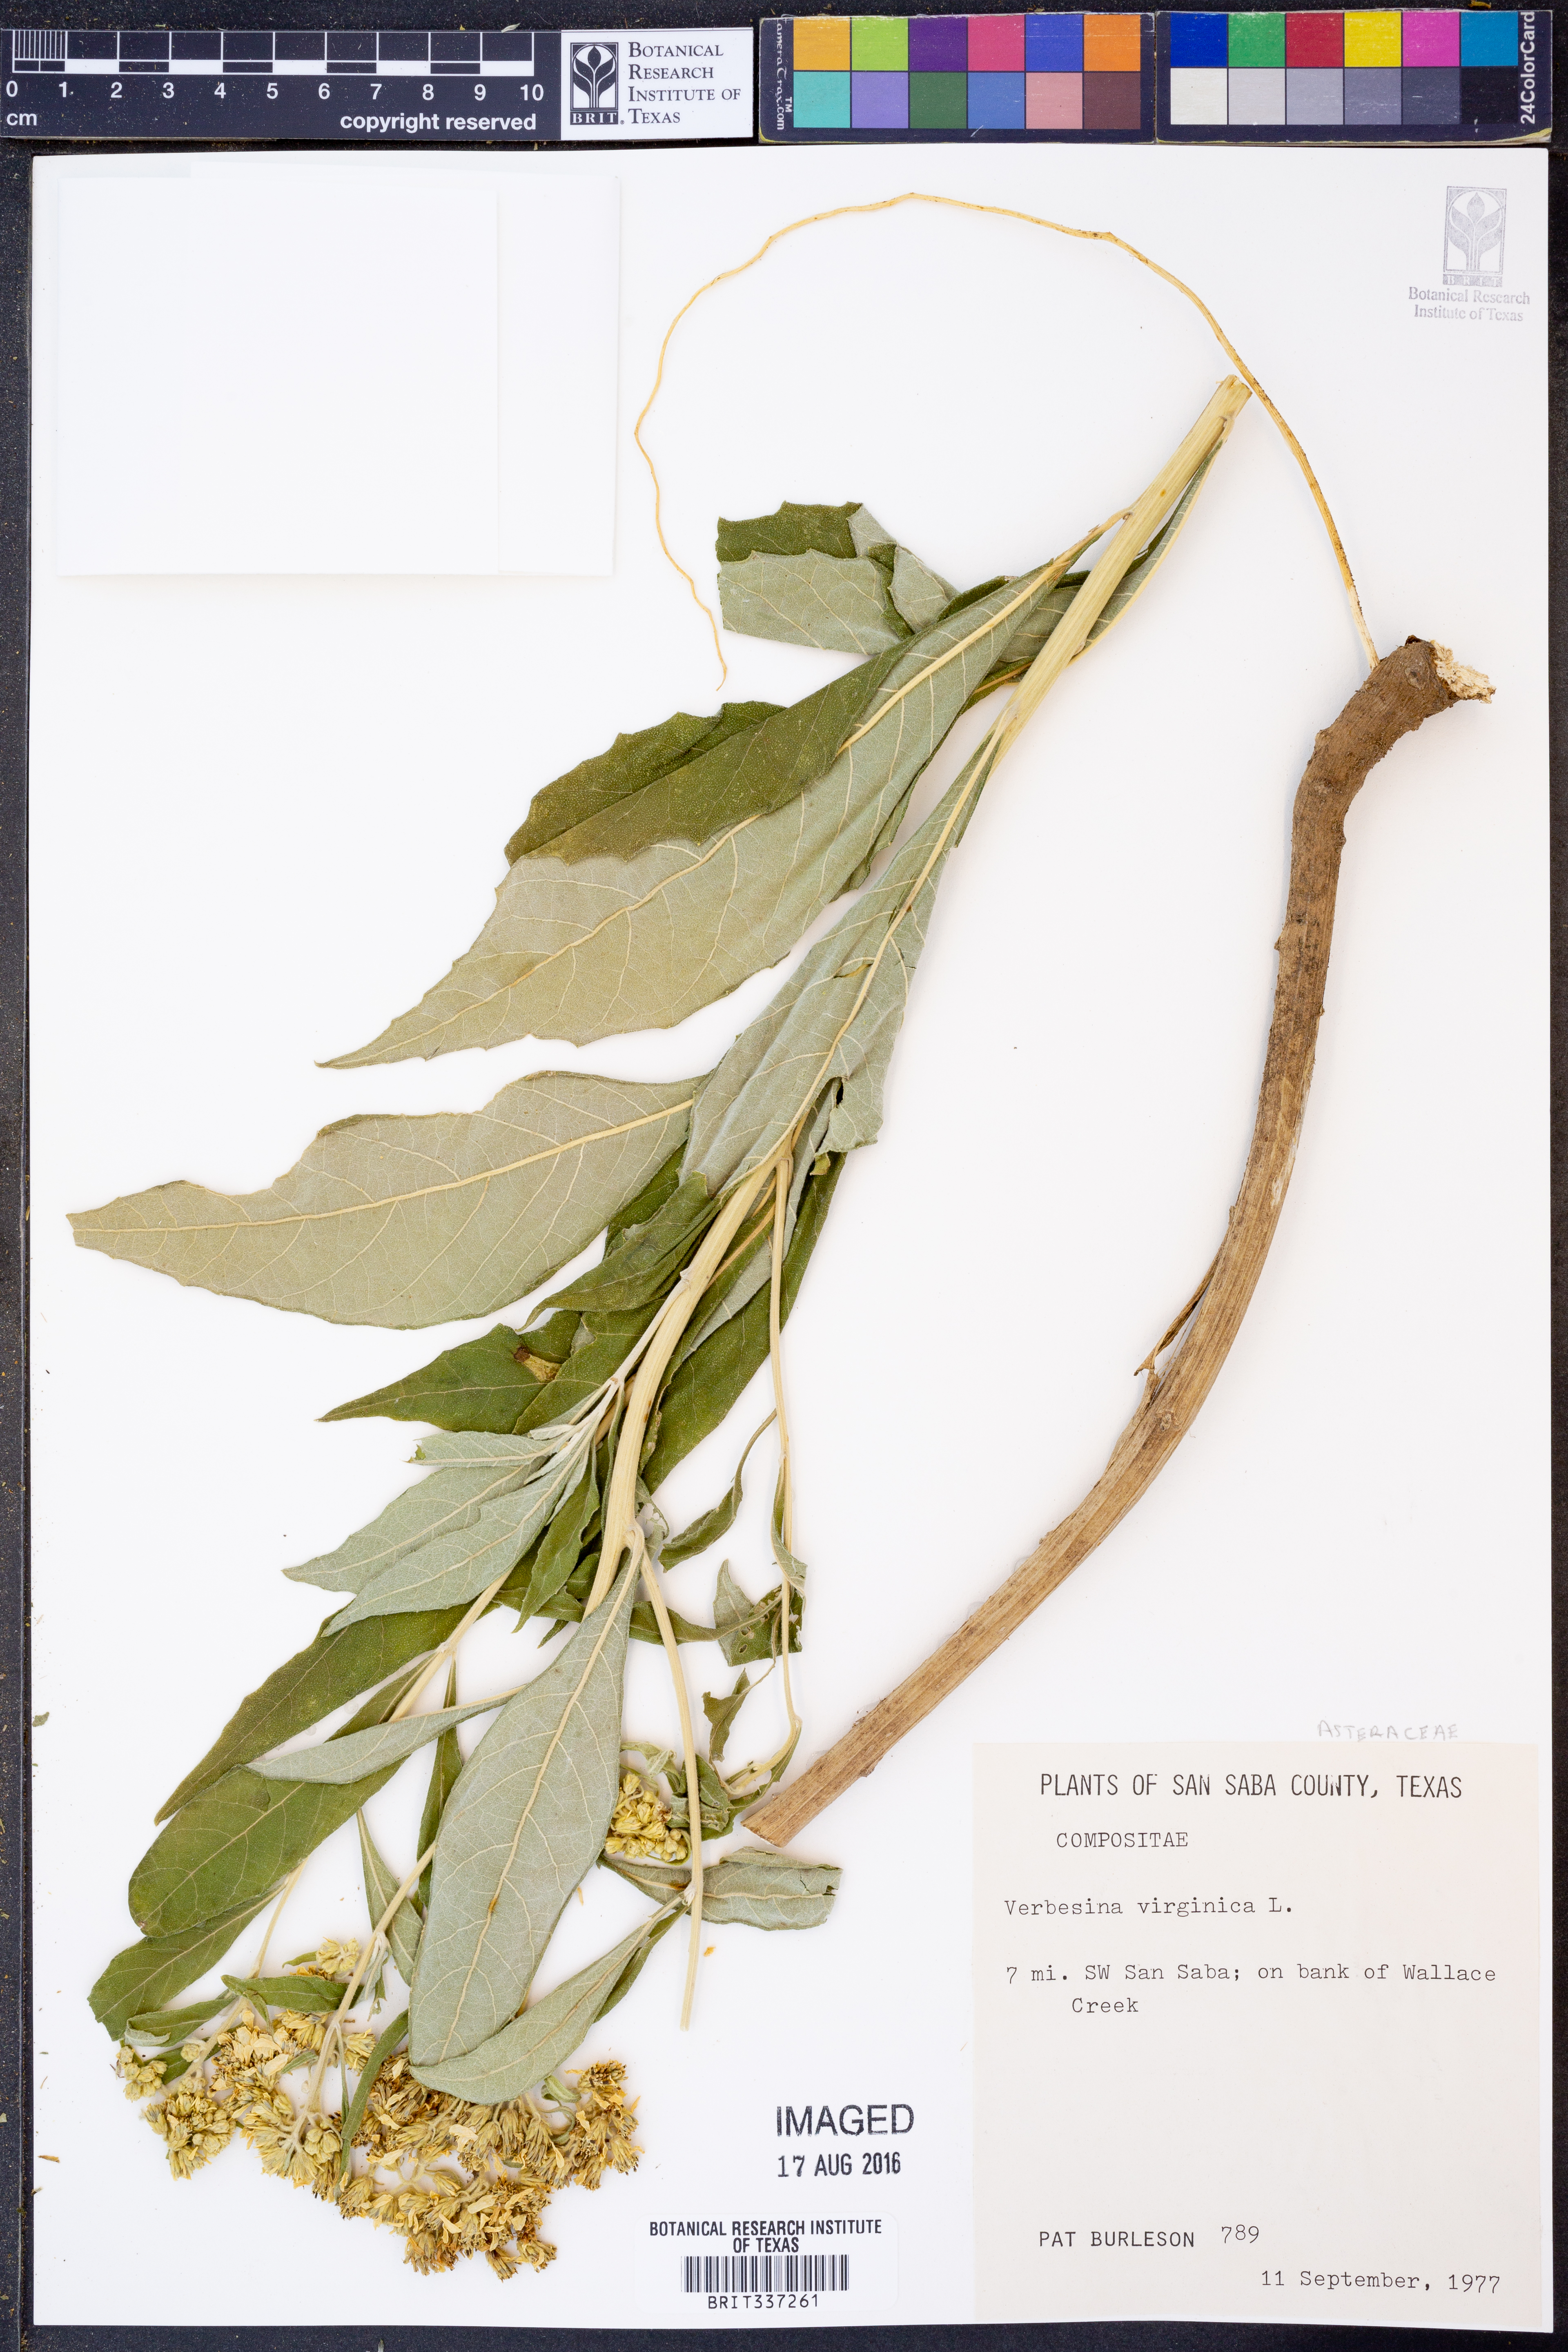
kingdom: Plantae
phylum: Tracheophyta
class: Magnoliopsida
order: Asterales
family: Asteraceae
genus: Verbesina
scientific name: Verbesina virginica
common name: Frostweed
